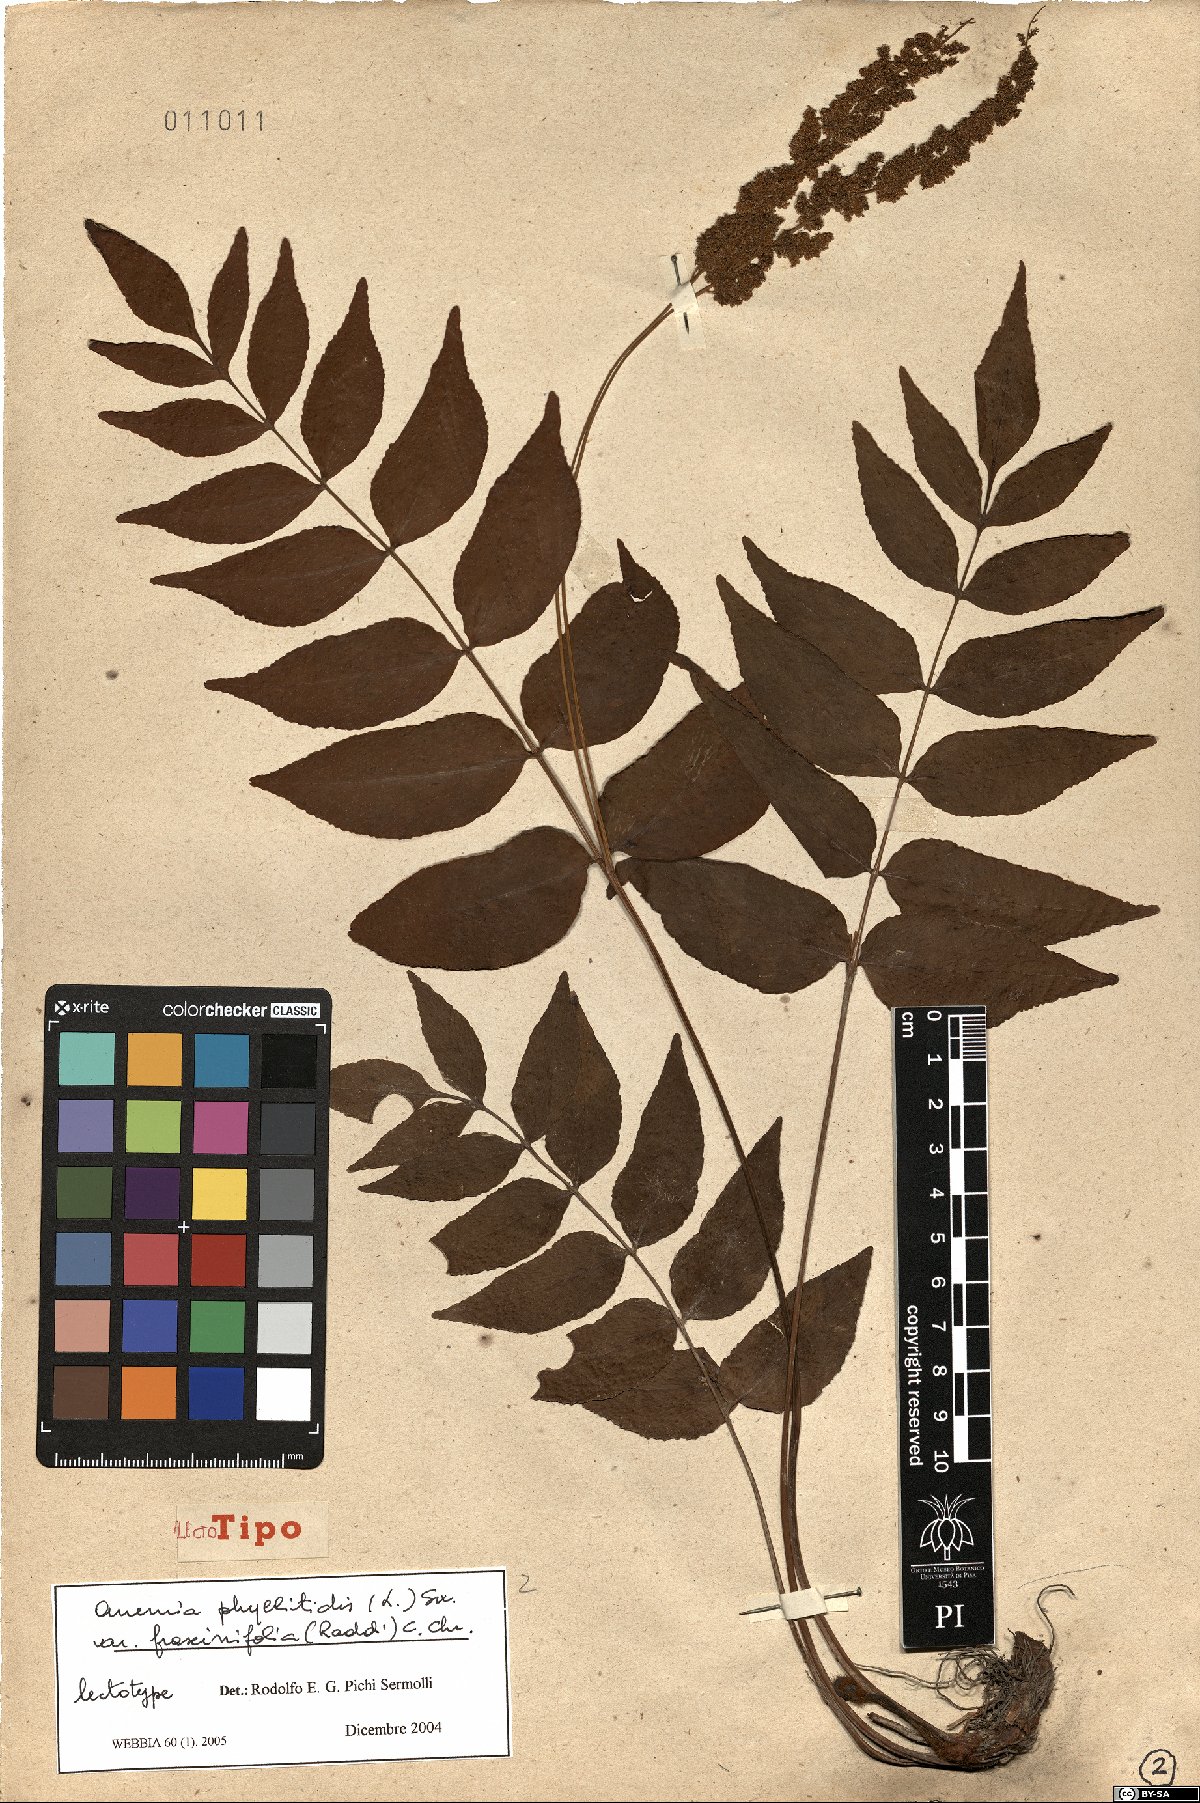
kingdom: Plantae
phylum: Tracheophyta
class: Polypodiopsida
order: Schizaeales
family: Anemiaceae
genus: Anemia
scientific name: Anemia phyllitidis
